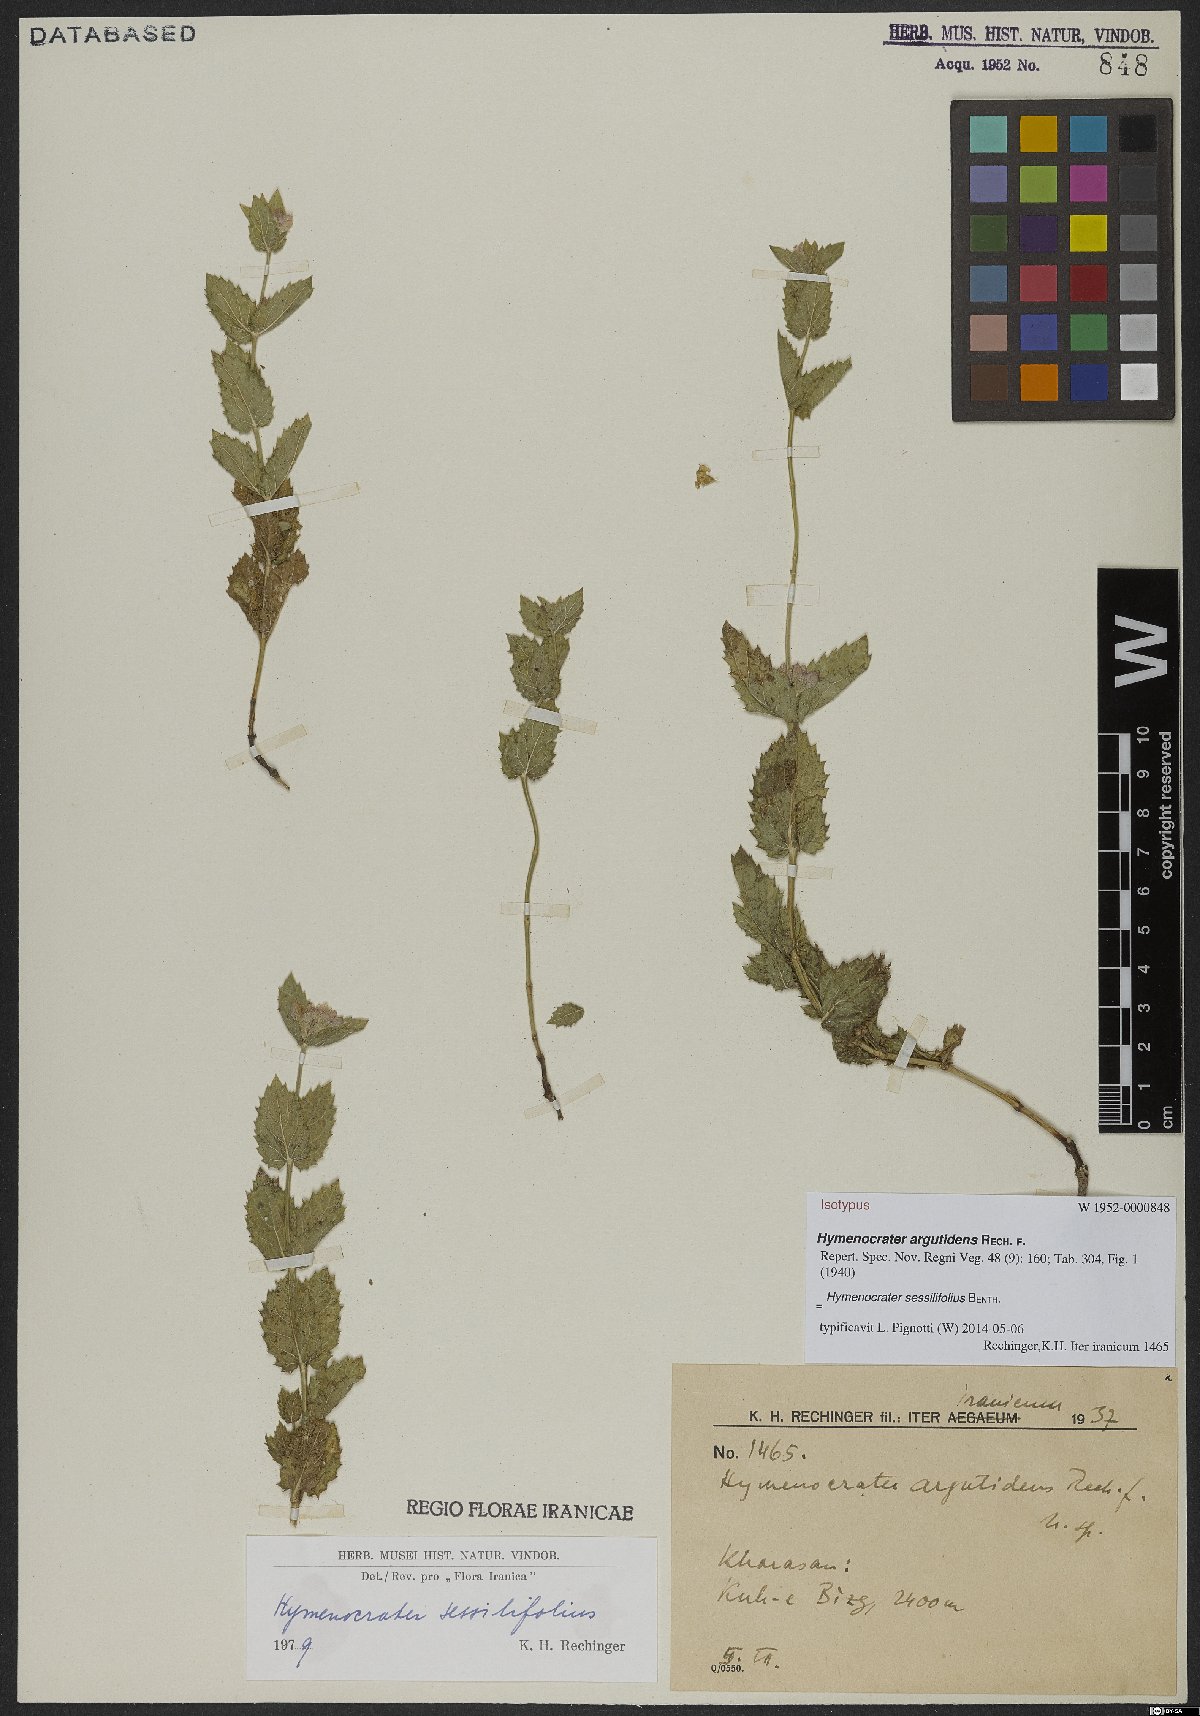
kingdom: Plantae
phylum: Tracheophyta
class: Magnoliopsida
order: Lamiales
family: Lamiaceae
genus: Nepeta
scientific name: Nepeta argutidens
